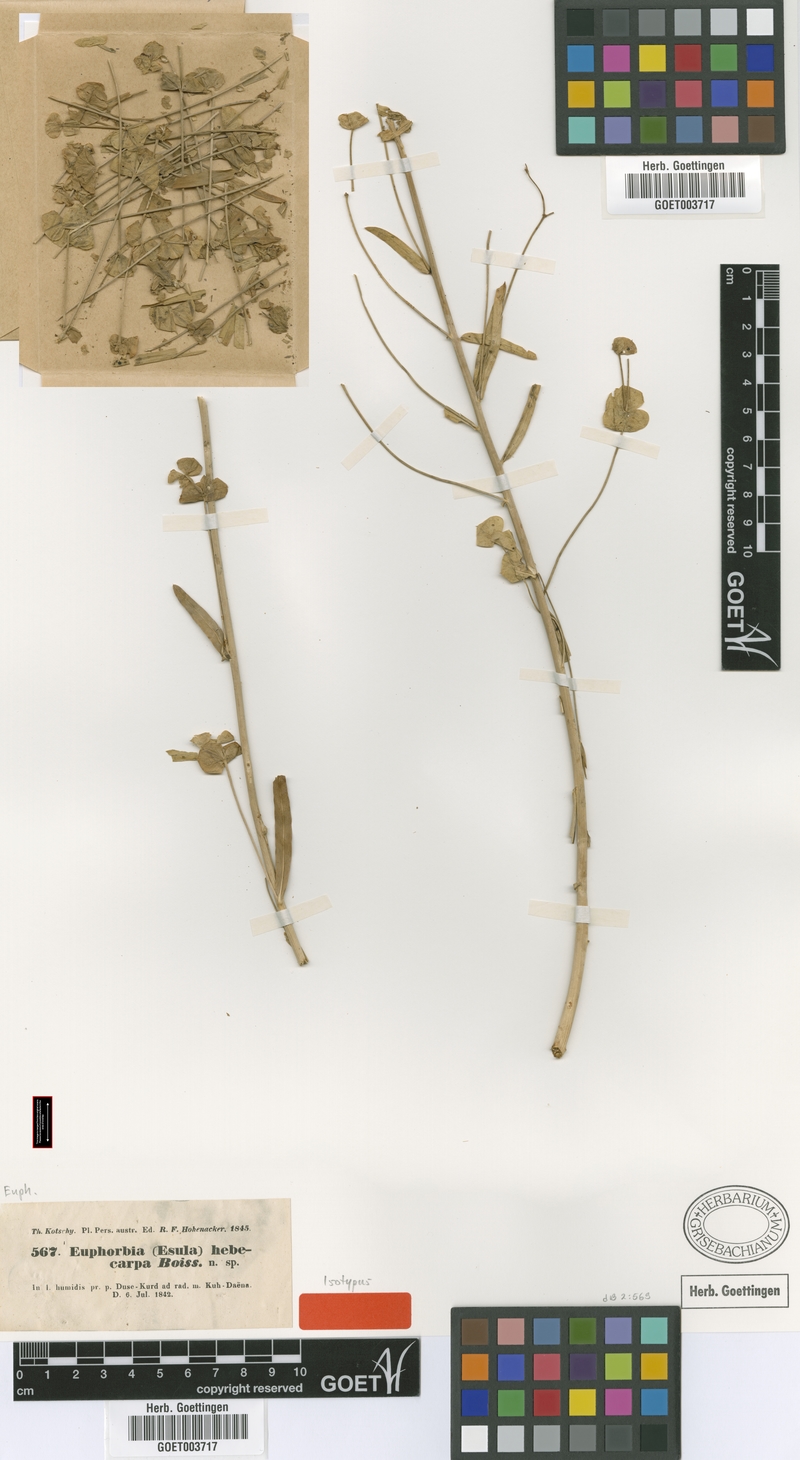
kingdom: Plantae
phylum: Tracheophyta
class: Magnoliopsida
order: Malpighiales
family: Euphorbiaceae
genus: Euphorbia
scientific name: Euphorbia hebecarpa
